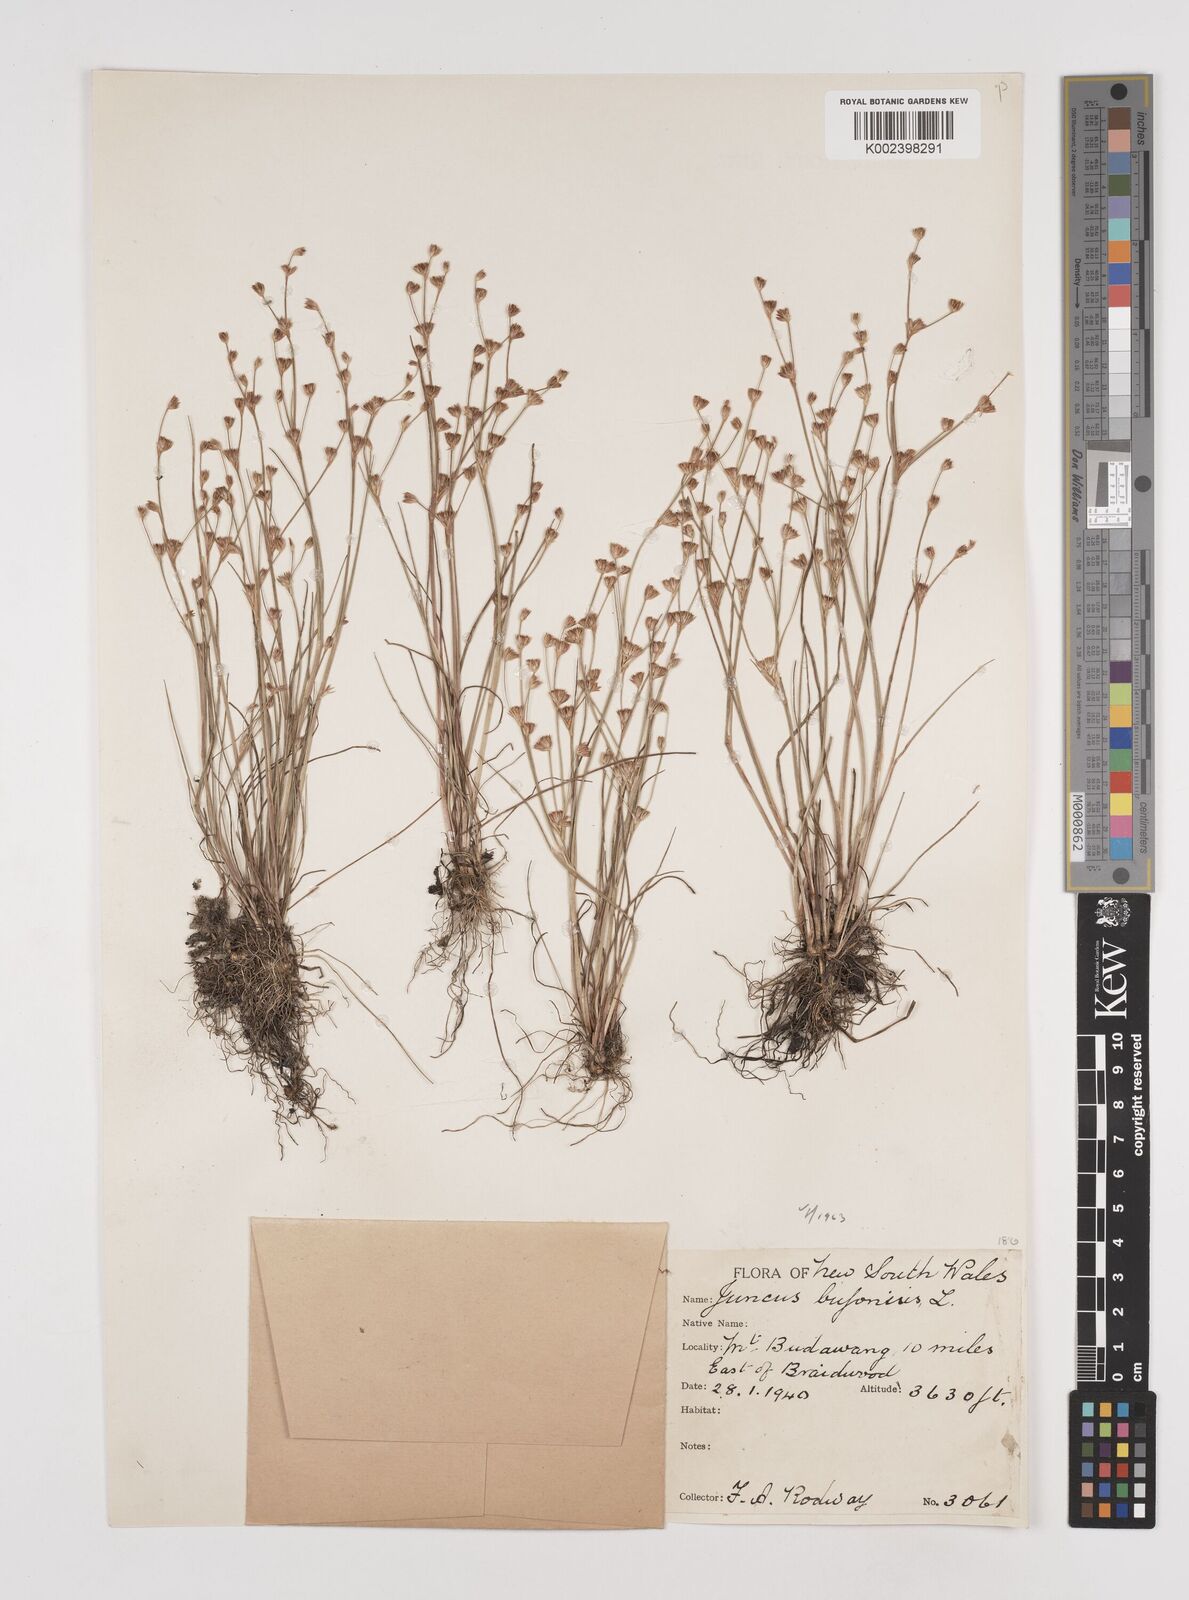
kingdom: Plantae
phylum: Tracheophyta
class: Liliopsida
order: Poales
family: Juncaceae
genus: Juncus
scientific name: Juncus ranarius
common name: Frog rush
